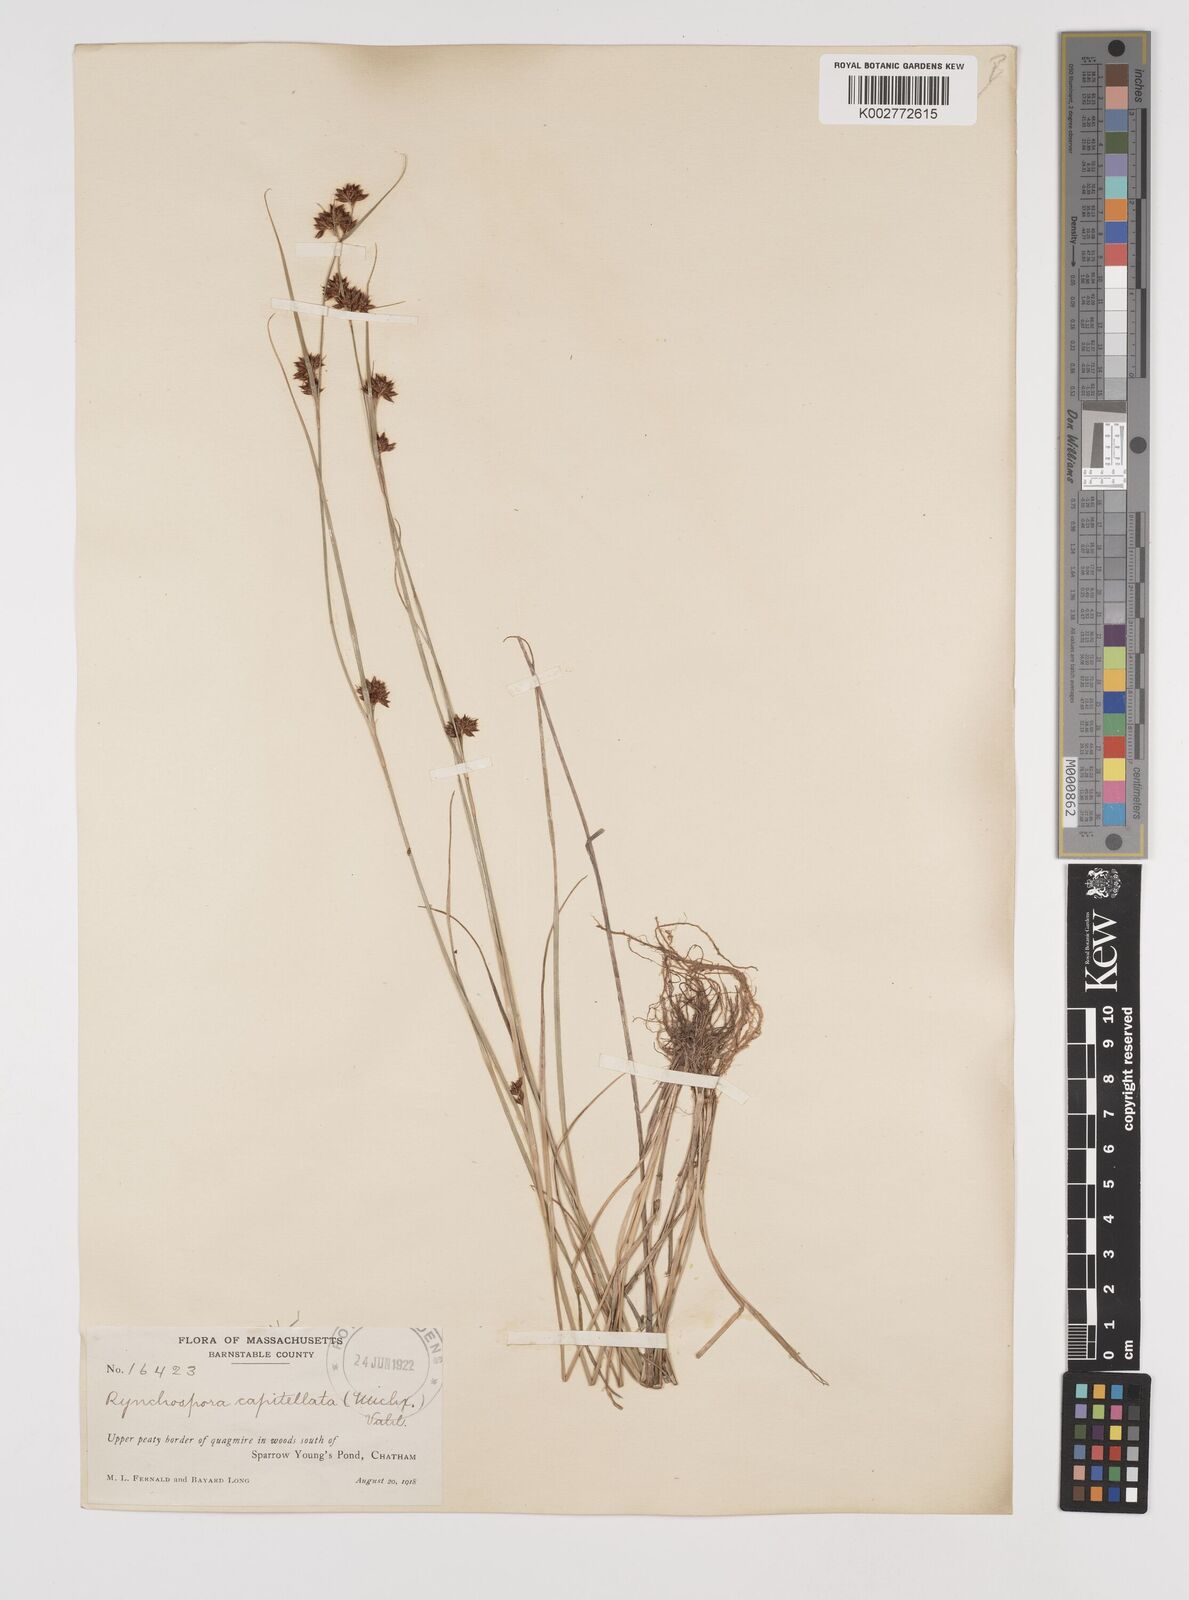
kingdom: Plantae
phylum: Tracheophyta
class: Liliopsida
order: Poales
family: Cyperaceae
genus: Rhynchospora
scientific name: Rhynchospora capitellata
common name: Brownish beaksedge
